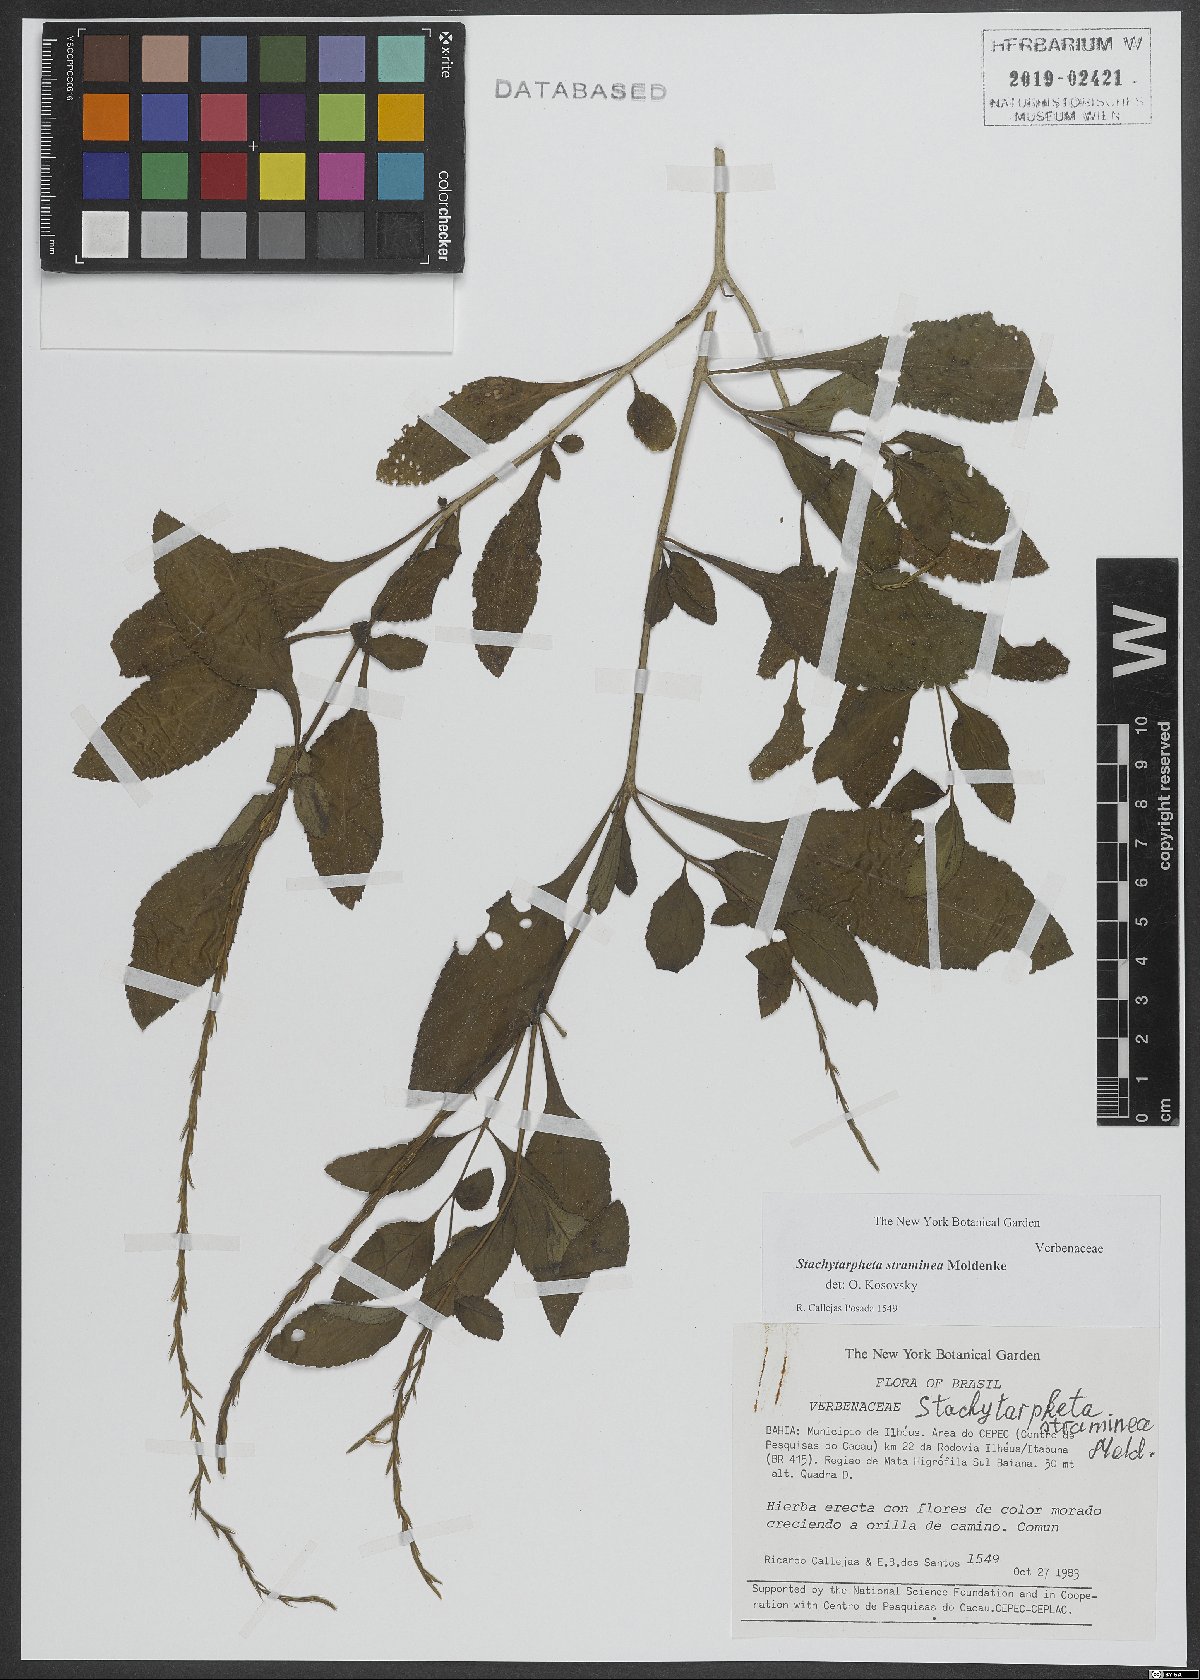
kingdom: Plantae
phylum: Tracheophyta
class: Magnoliopsida
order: Lamiales
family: Verbenaceae
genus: Stachytarpheta
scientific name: Stachytarpheta straminea
